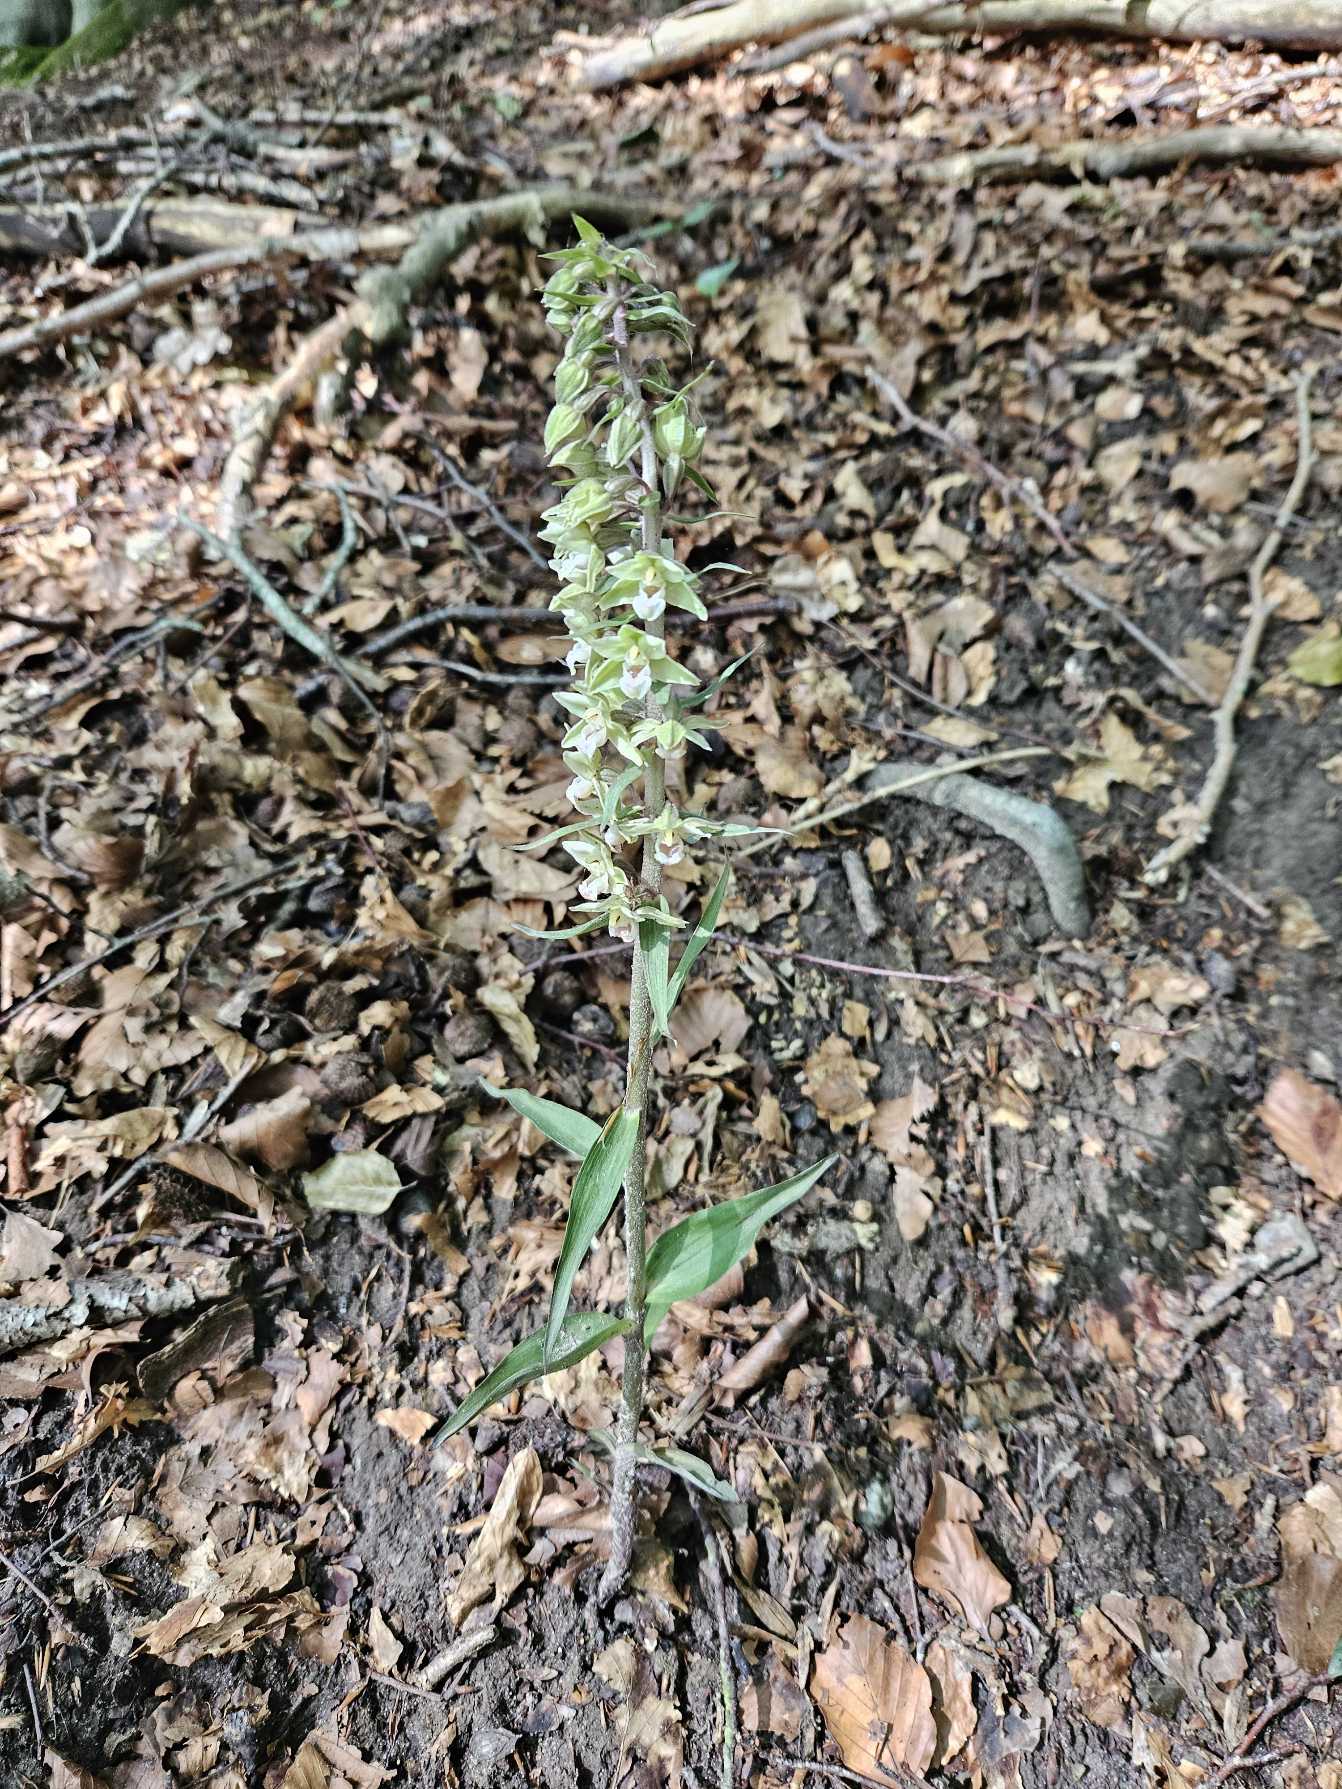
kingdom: Plantae
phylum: Tracheophyta
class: Liliopsida
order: Asparagales
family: Orchidaceae
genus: Epipactis
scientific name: Epipactis purpurata
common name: Tætblomstret hullæbe
